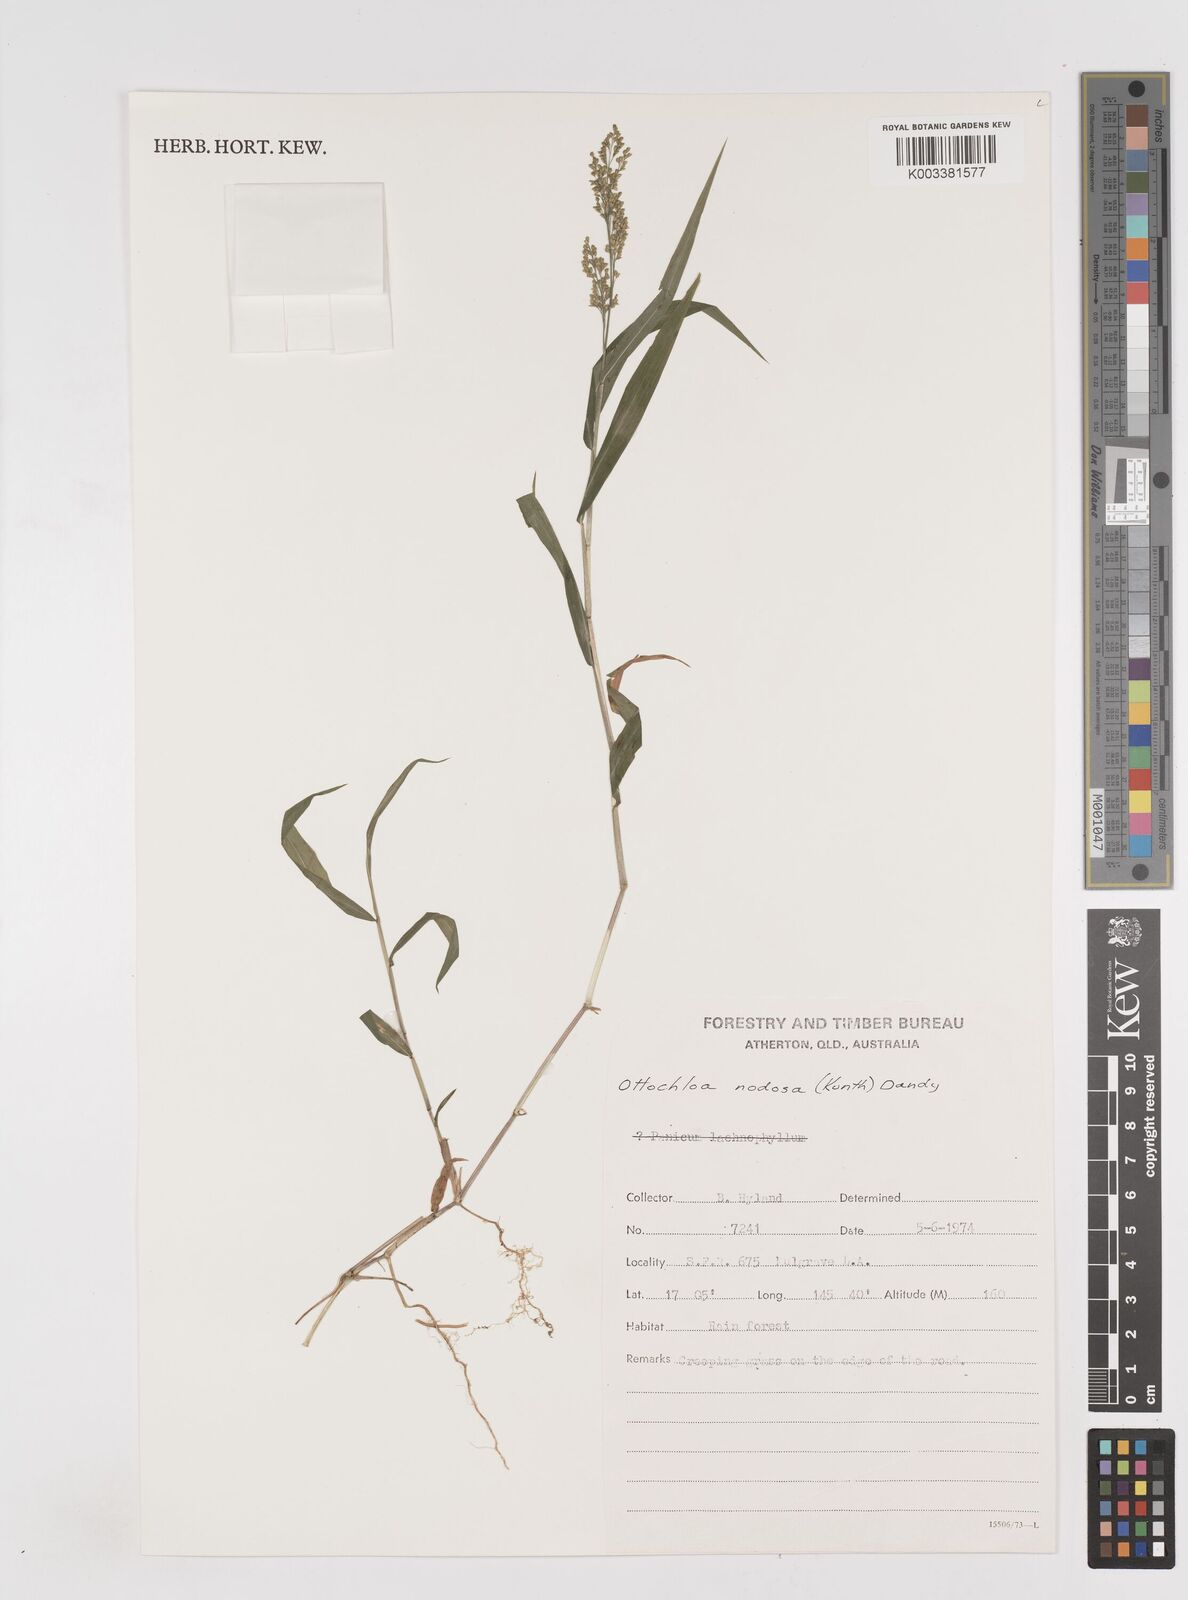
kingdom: Plantae
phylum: Tracheophyta
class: Liliopsida
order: Poales
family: Poaceae
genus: Ottochloa
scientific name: Ottochloa nodosa
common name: Slender-panic grass
